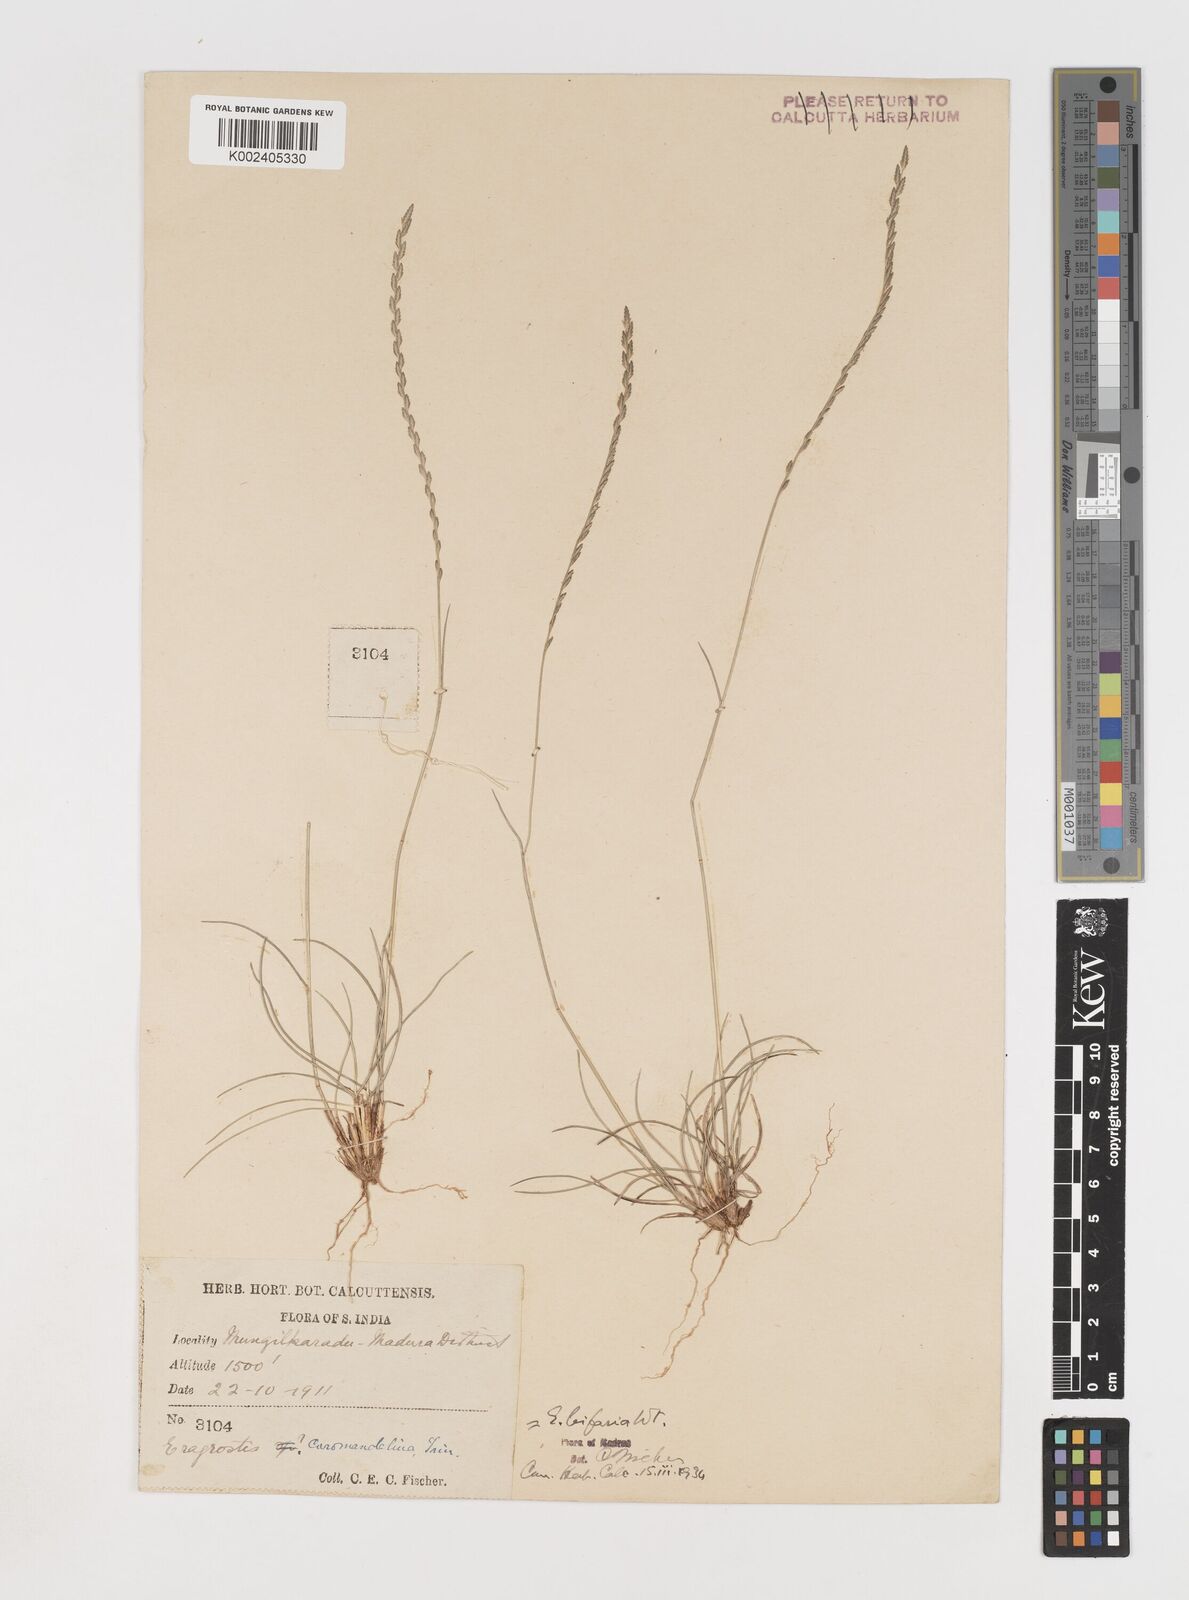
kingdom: Plantae
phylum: Tracheophyta
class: Liliopsida
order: Poales
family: Poaceae
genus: Eragrostiella
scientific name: Eragrostiella bifaria
